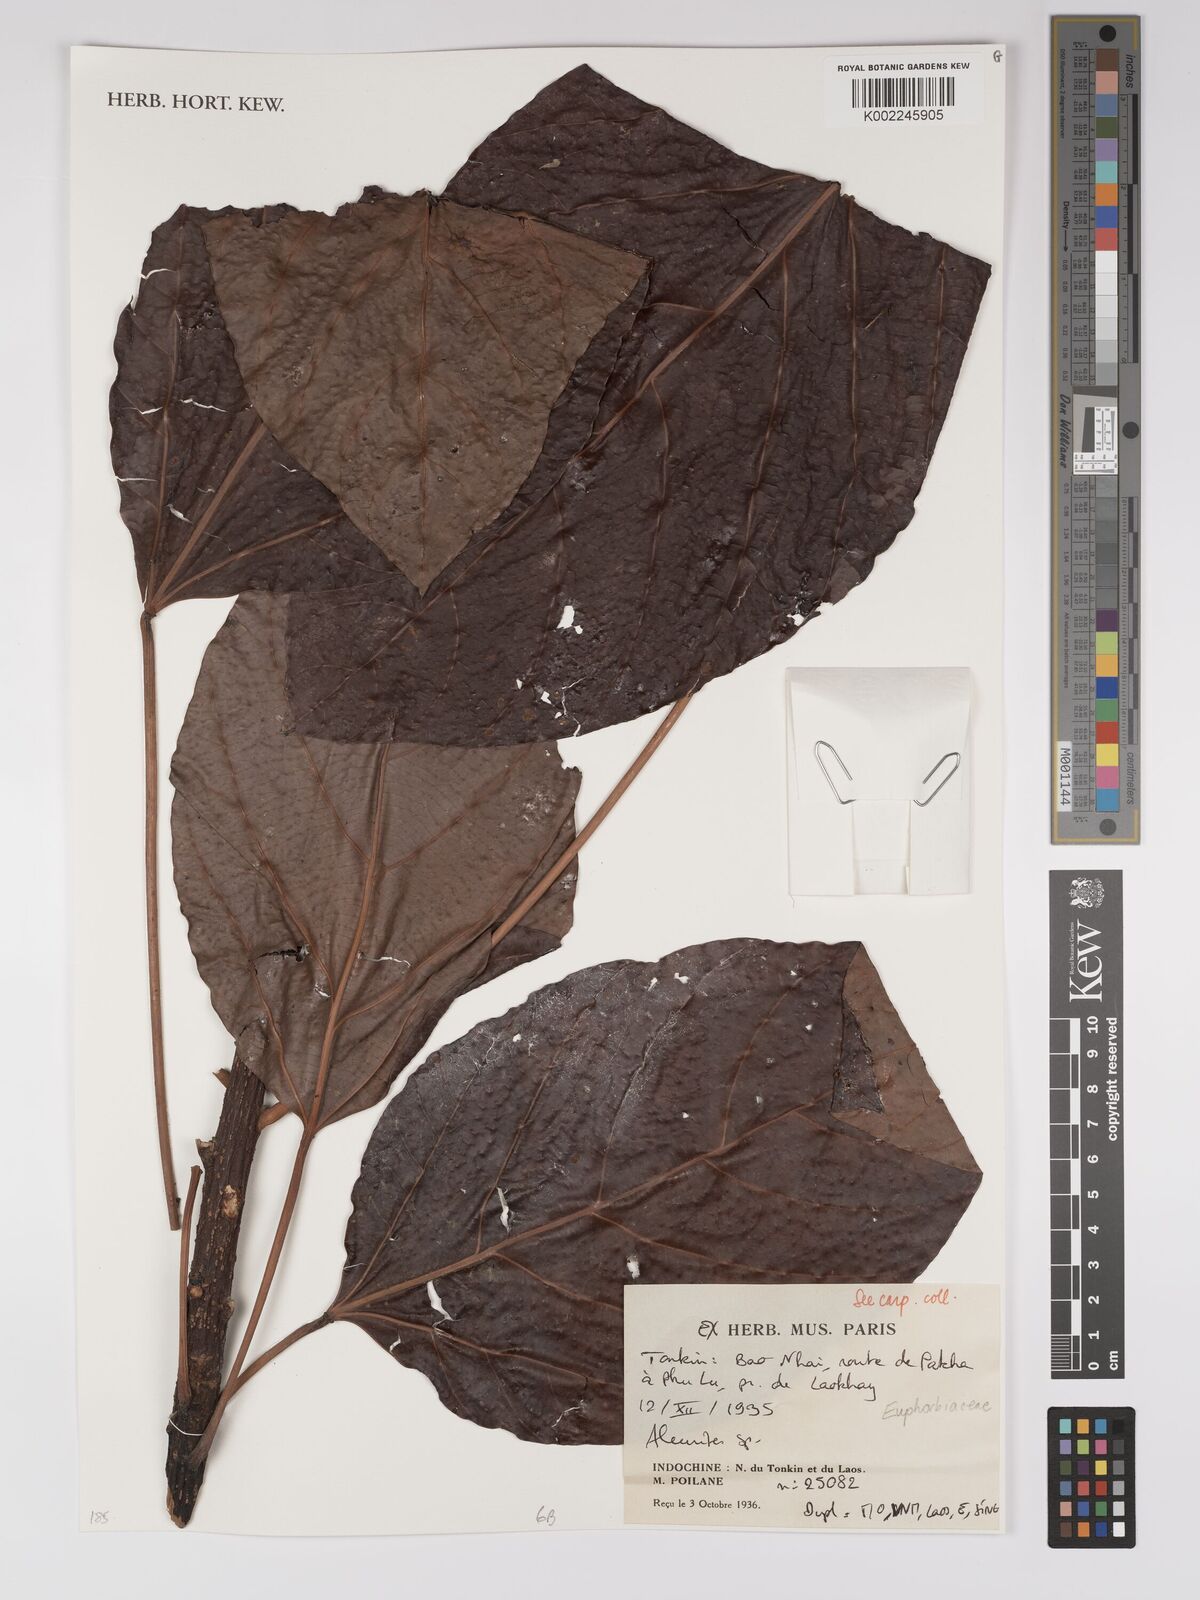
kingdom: Plantae
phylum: Tracheophyta
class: Magnoliopsida
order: Malpighiales
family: Euphorbiaceae
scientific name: Euphorbiaceae
